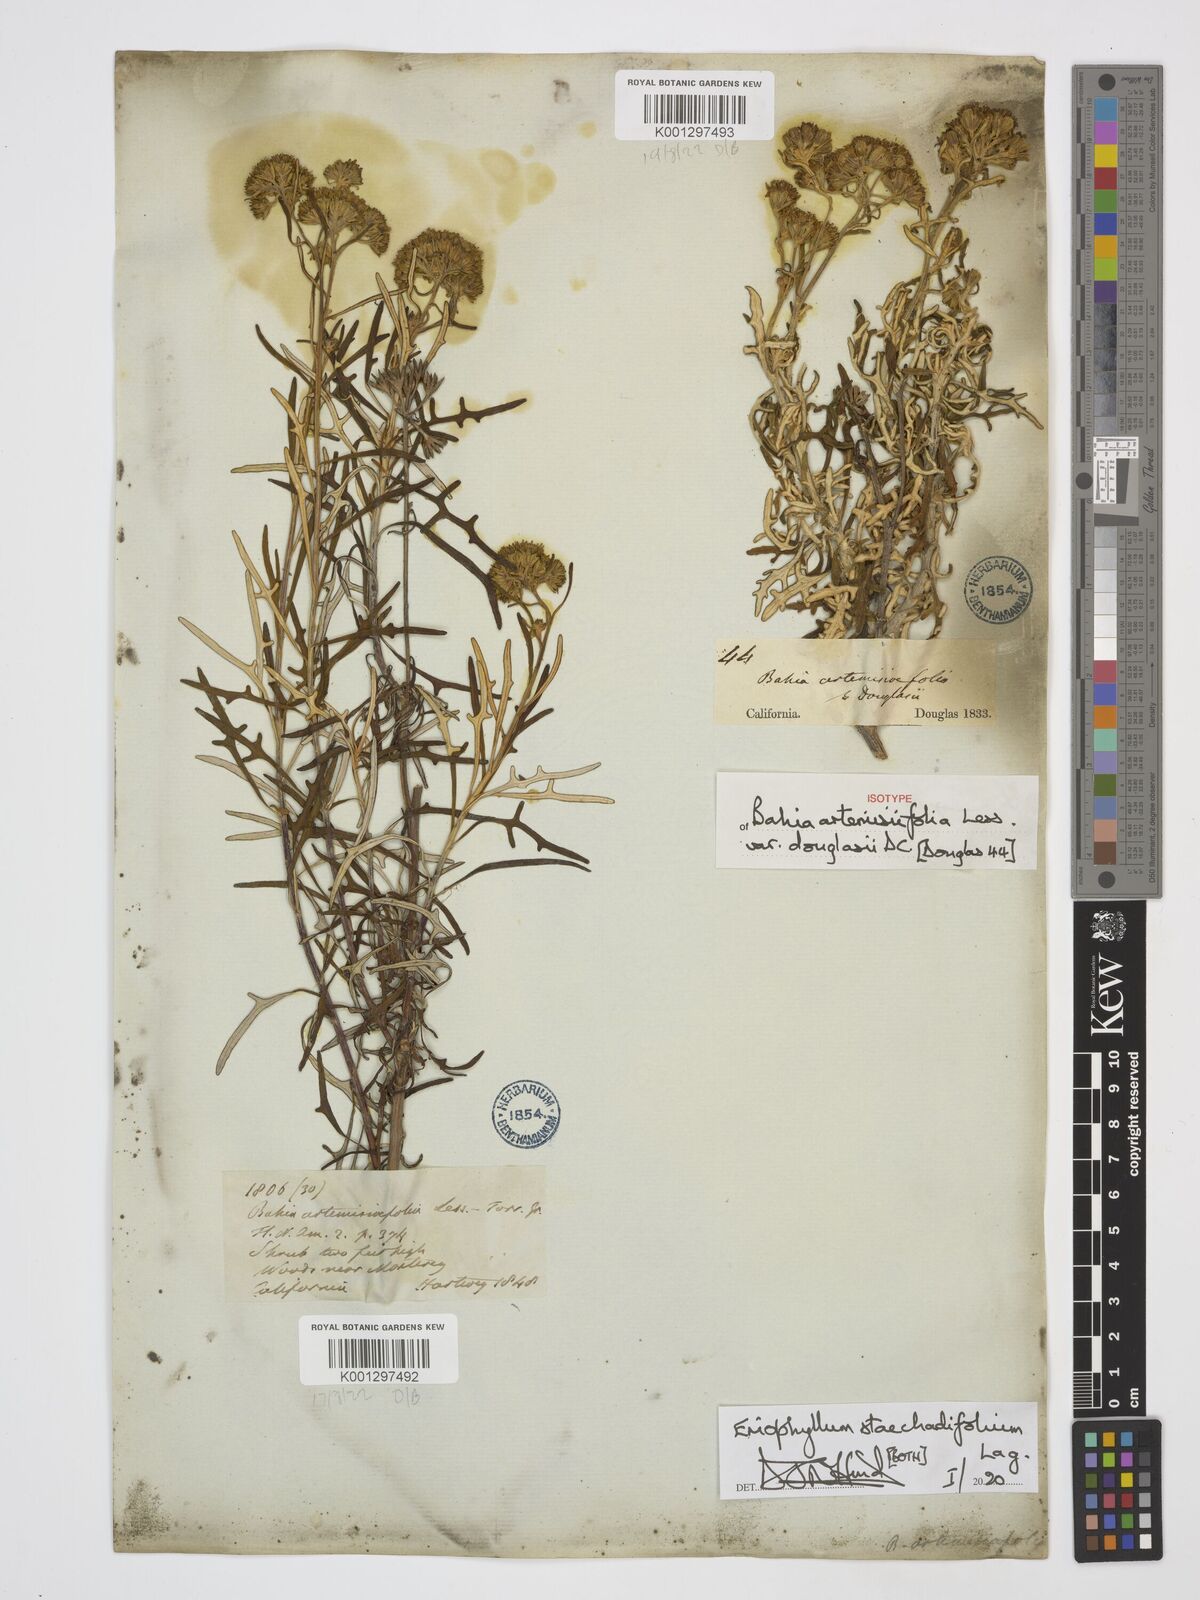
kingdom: Plantae
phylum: Tracheophyta
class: Magnoliopsida
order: Asterales
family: Asteraceae
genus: Eriophyllum
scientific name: Eriophyllum staechadifolium
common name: Lizardtail
